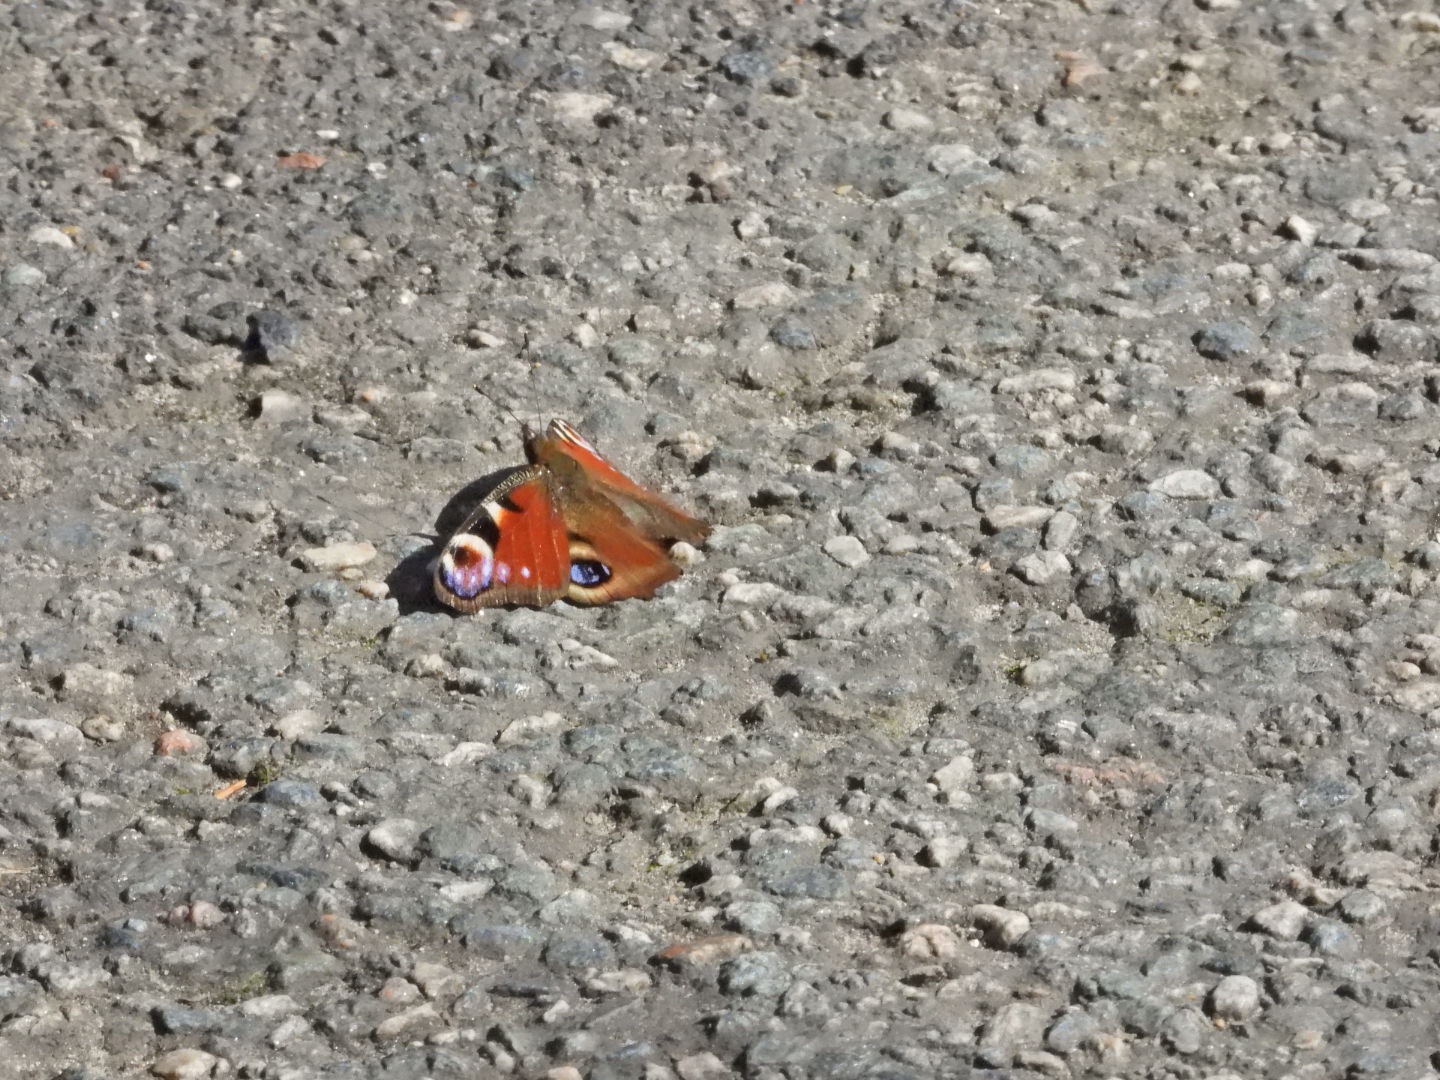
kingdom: Animalia
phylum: Arthropoda
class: Insecta
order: Lepidoptera
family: Nymphalidae
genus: Aglais
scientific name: Aglais io
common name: Dagpåfugleøje
